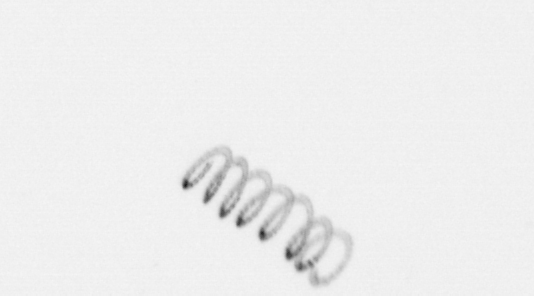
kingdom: Chromista
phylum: Ochrophyta
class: Bacillariophyceae
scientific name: Bacillariophyceae
